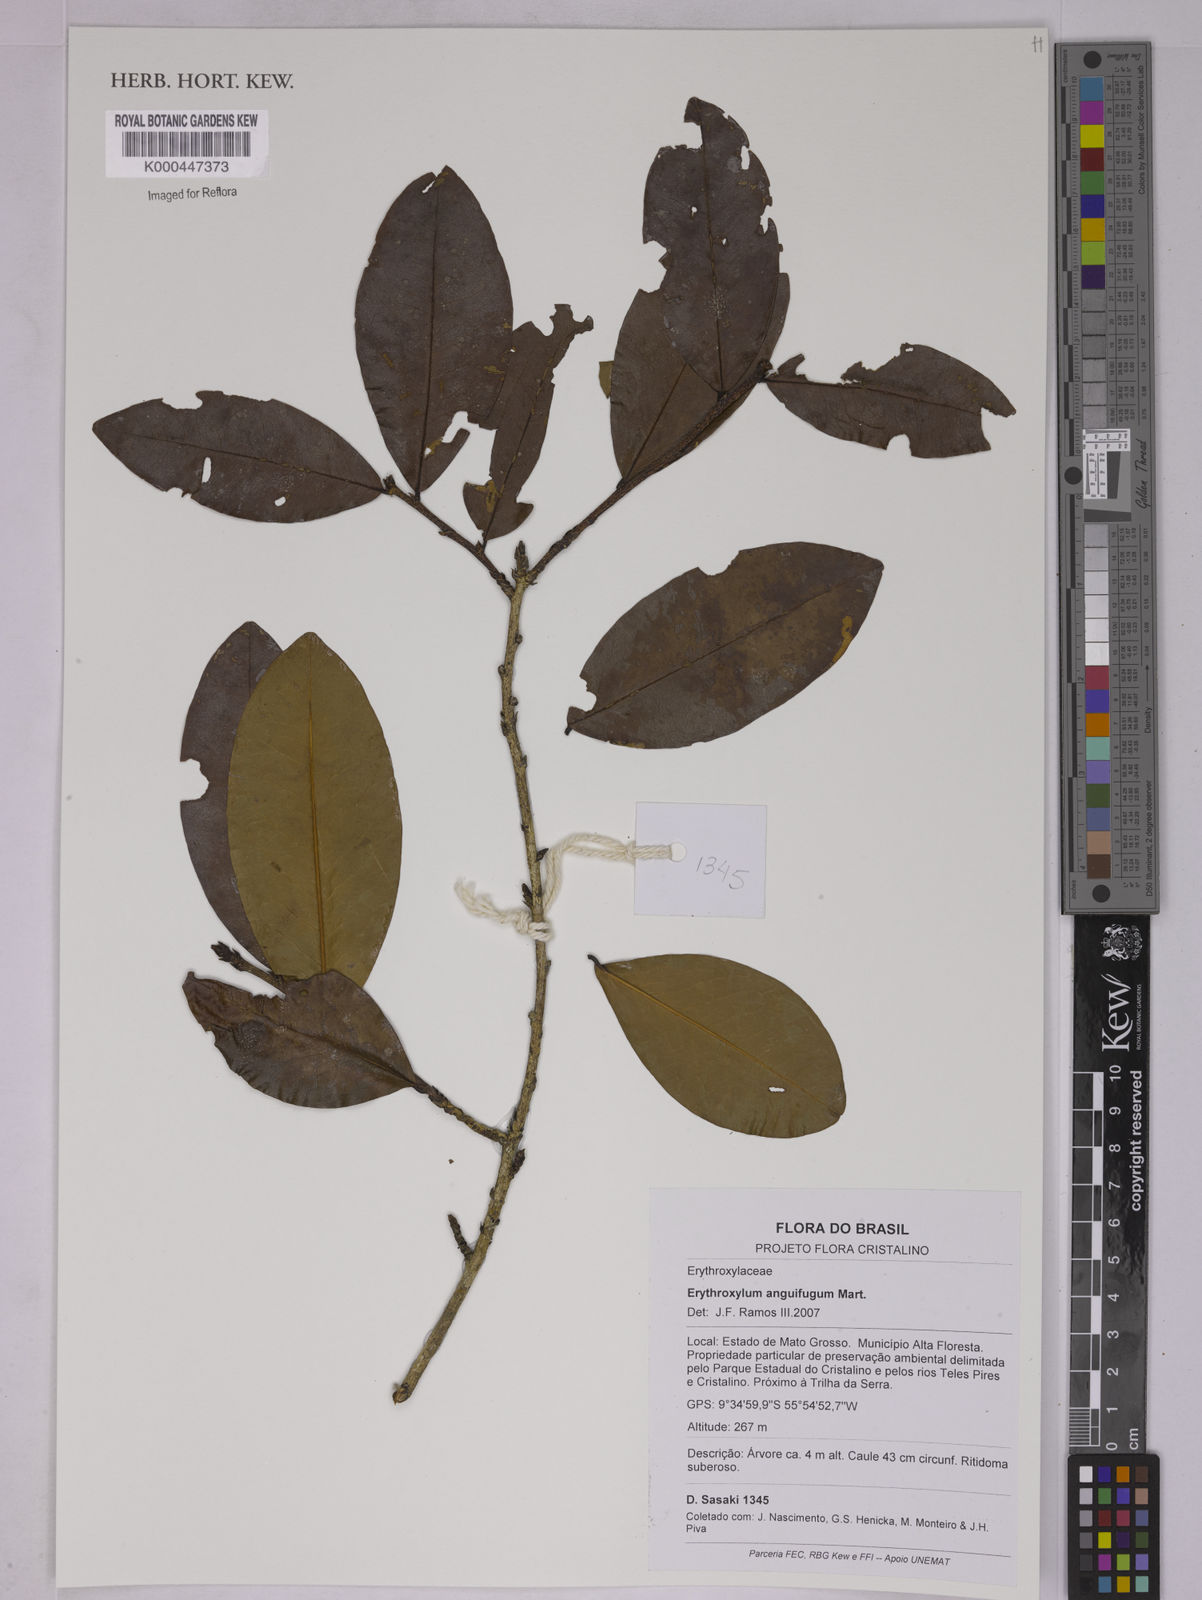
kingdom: Plantae
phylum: Tracheophyta
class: Magnoliopsida
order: Malpighiales
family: Erythroxylaceae
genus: Erythroxylum
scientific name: Erythroxylum anguifugum
